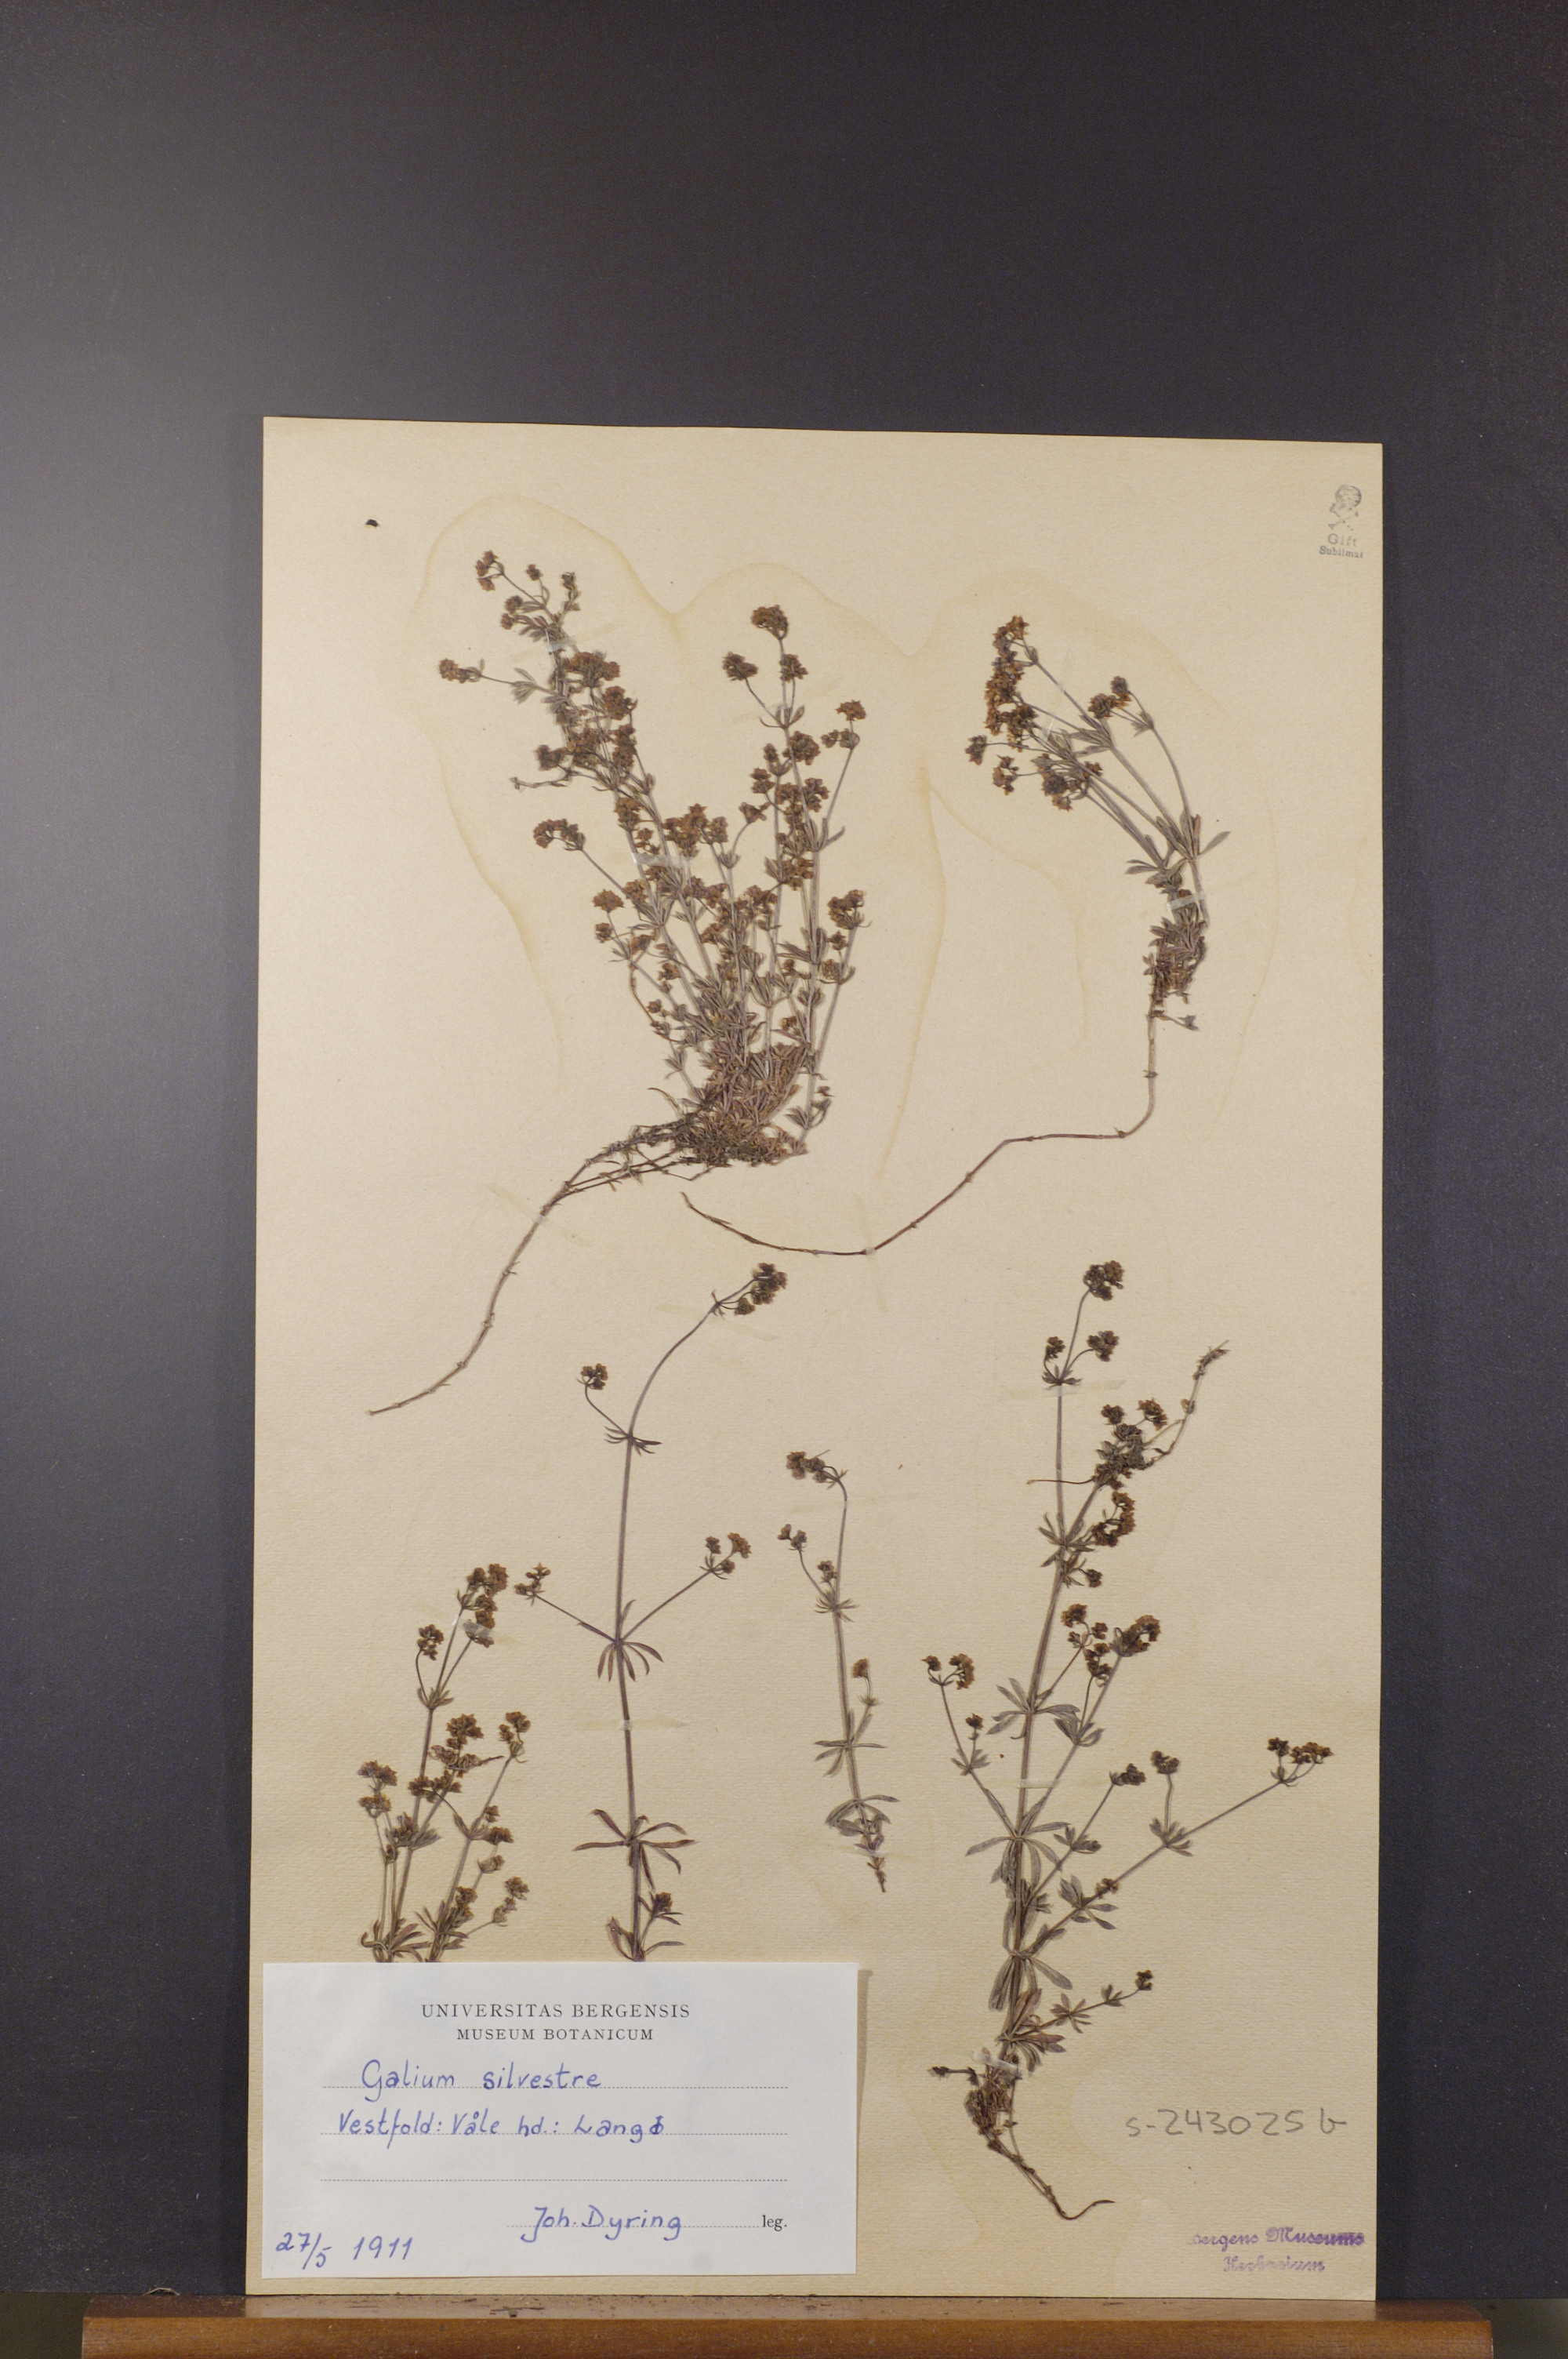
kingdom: Plantae
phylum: Tracheophyta
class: Magnoliopsida
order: Gentianales
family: Rubiaceae
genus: Galium
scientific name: Galium pumilum
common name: Slender bedstraw
